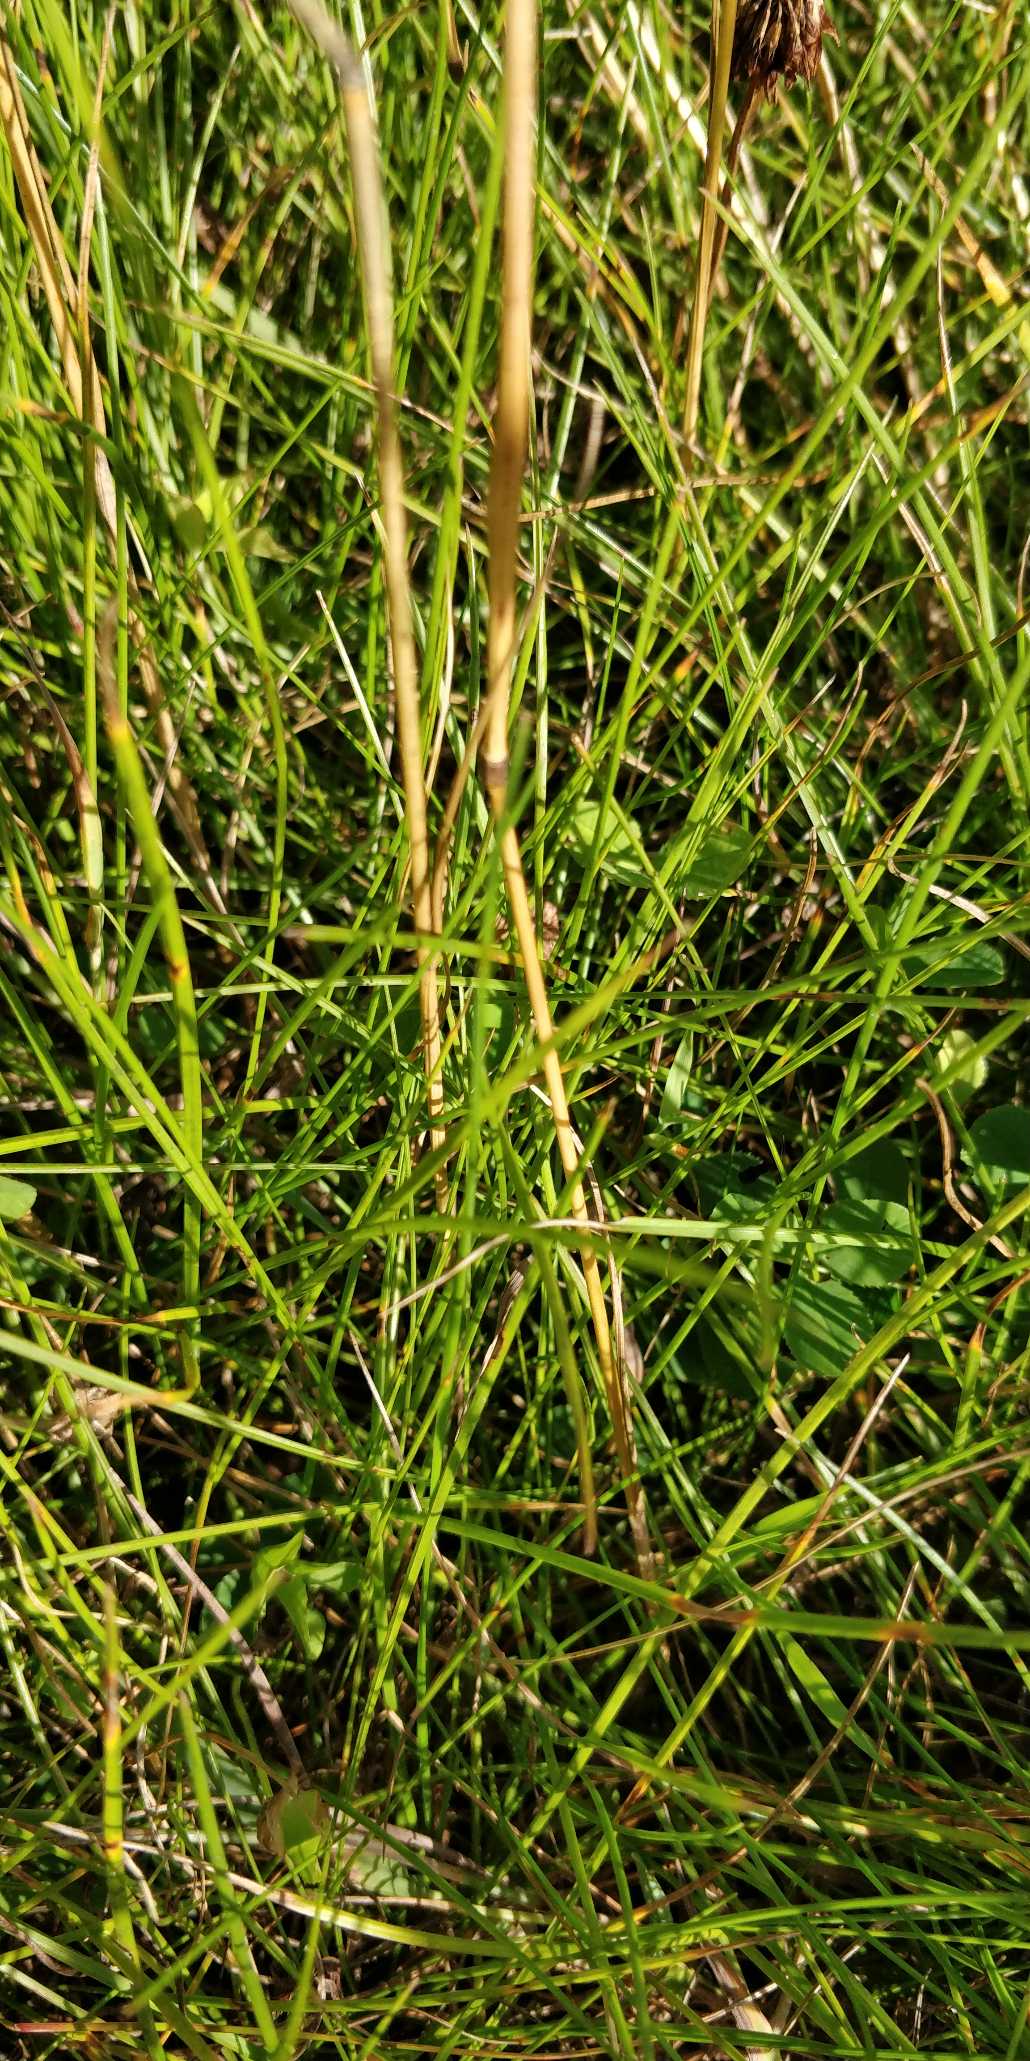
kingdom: Plantae
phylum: Tracheophyta
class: Liliopsida
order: Poales
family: Poaceae
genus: Festuca
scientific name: Festuca rubra
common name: Rød svingel
